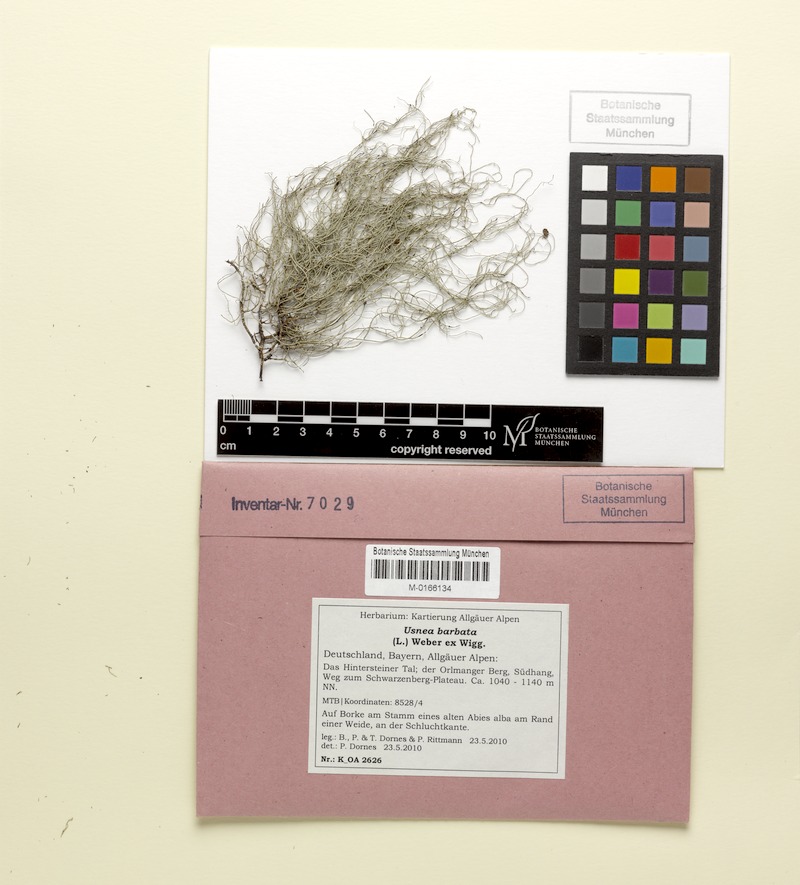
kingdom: Fungi
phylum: Ascomycota
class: Lecanoromycetes
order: Lecanorales
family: Parmeliaceae
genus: Usnea
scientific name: Usnea barbata
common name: Old man's beard lichen
